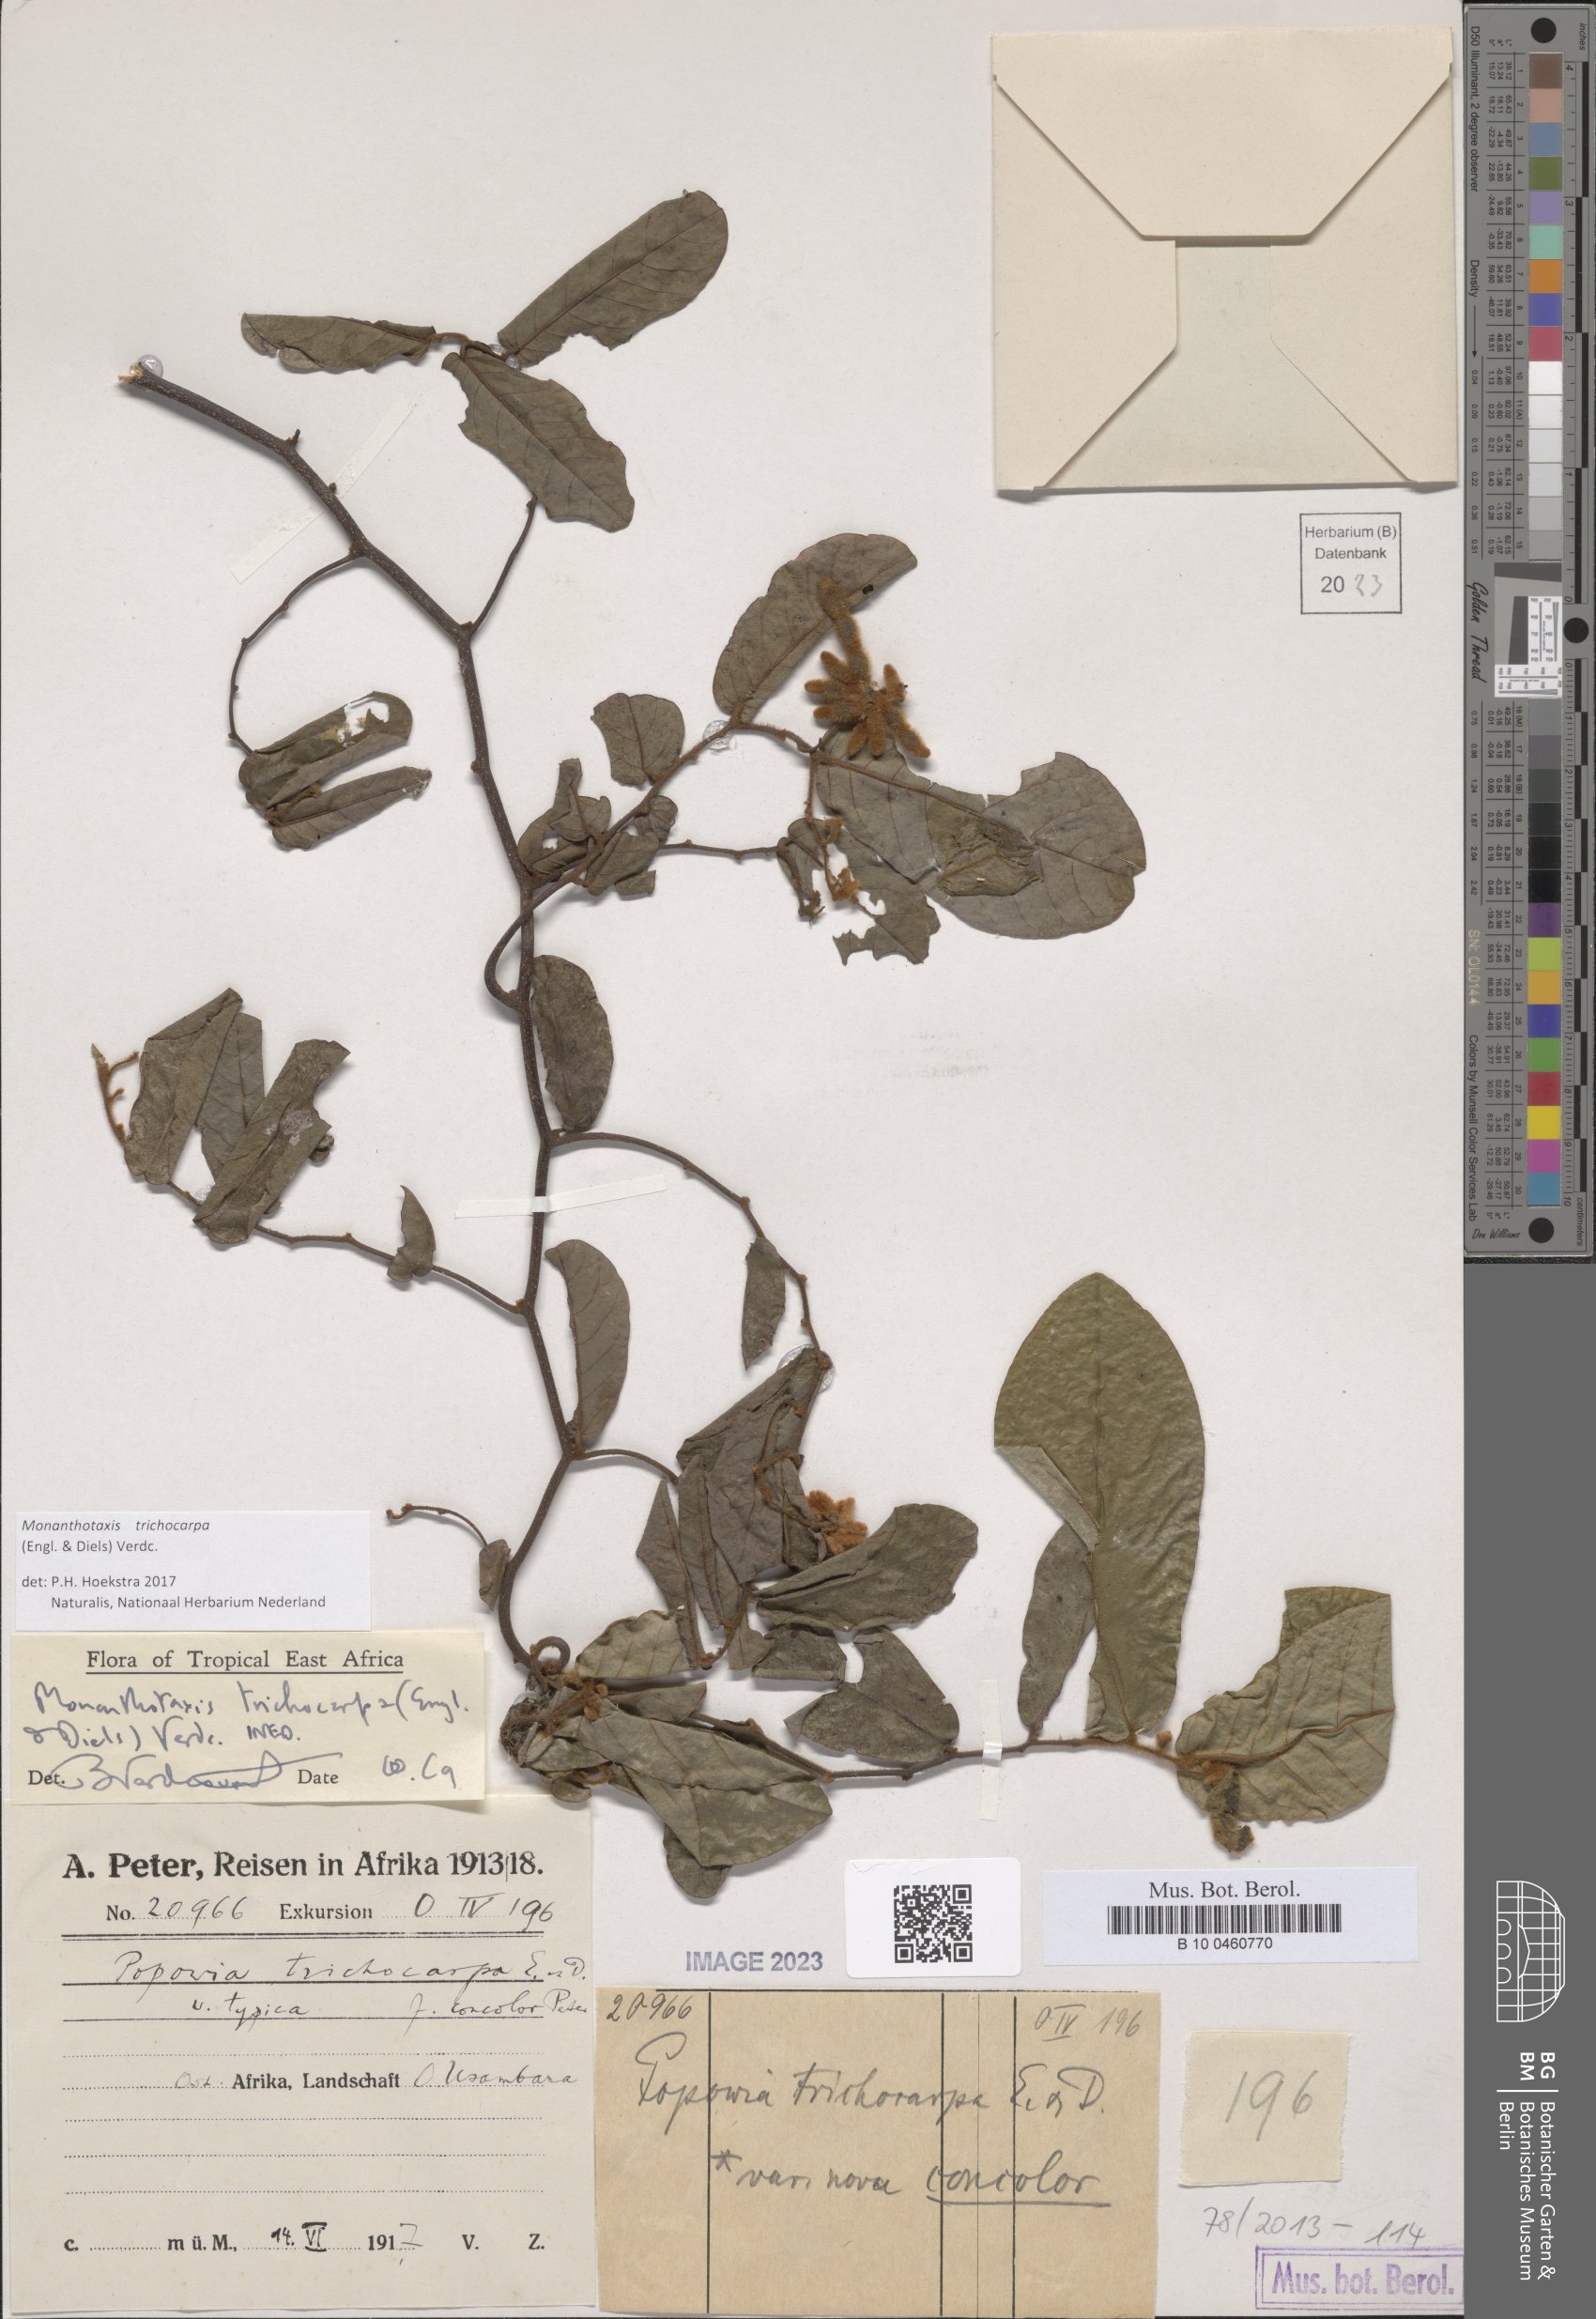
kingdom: Plantae
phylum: Tracheophyta
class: Magnoliopsida
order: Magnoliales
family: Annonaceae
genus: Monanthotaxis
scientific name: Monanthotaxis trichocarpa
